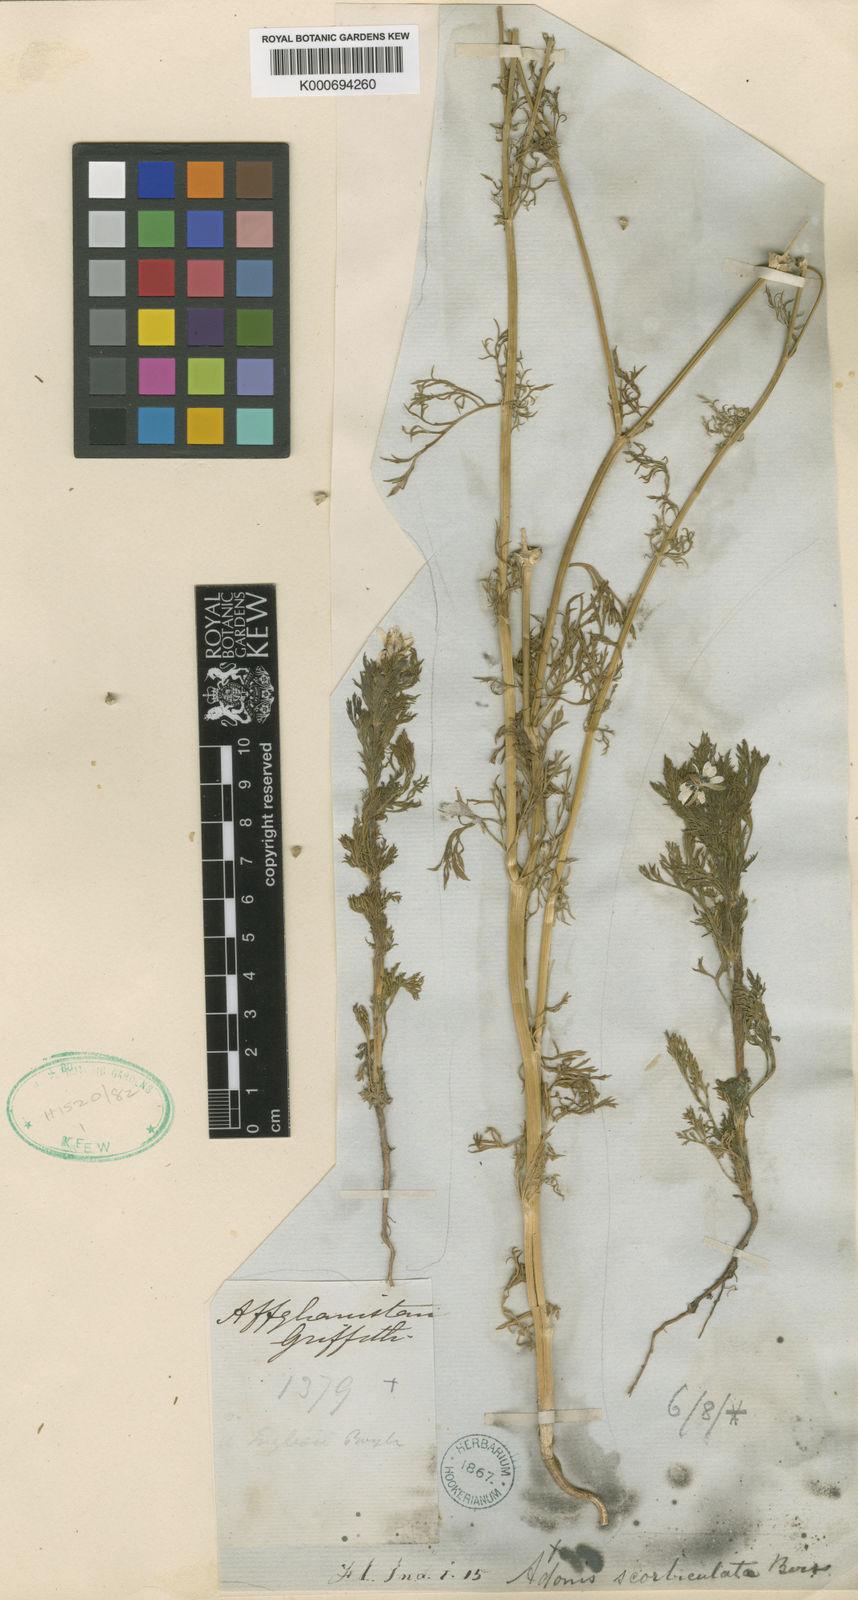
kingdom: Plantae
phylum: Tracheophyta
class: Magnoliopsida
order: Ranunculales
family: Ranunculaceae
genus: Adonis
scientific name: Adonis flammea
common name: Large pheasant's-eye
